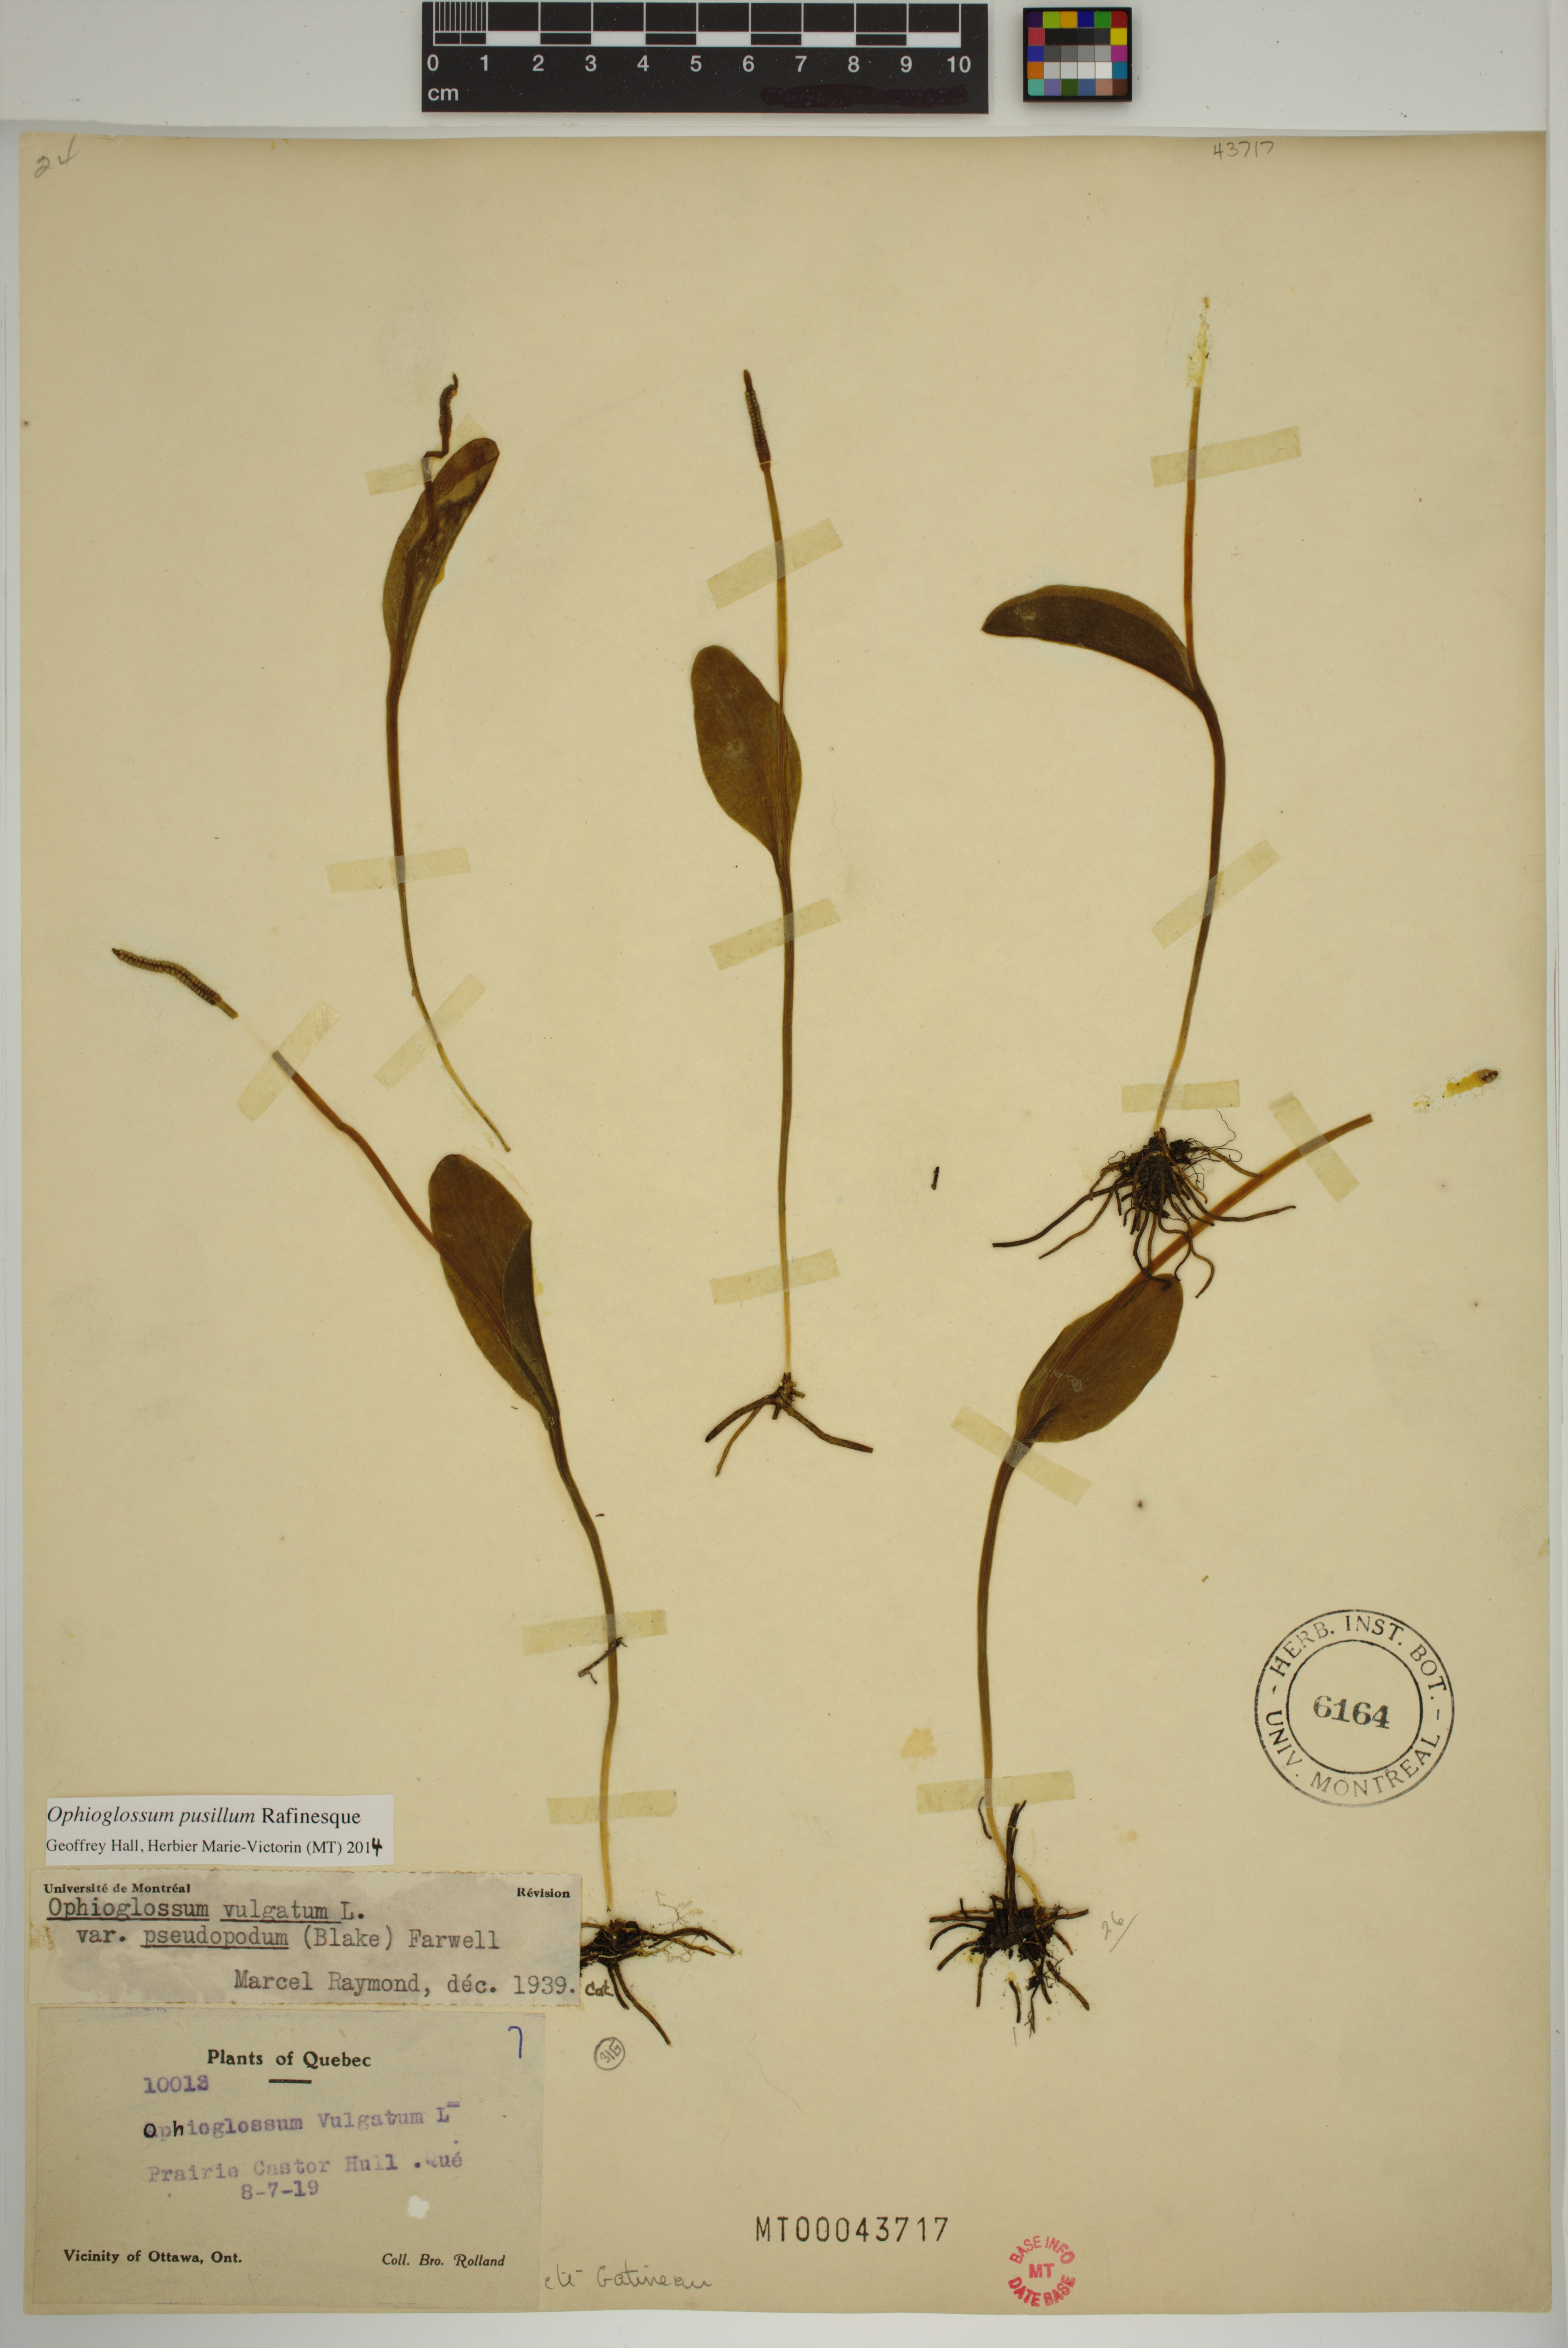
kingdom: Plantae
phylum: Tracheophyta
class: Polypodiopsida
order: Ophioglossales
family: Ophioglossaceae
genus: Ophioglossum
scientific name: Ophioglossum pusillum
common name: Northern adder's-tongue
